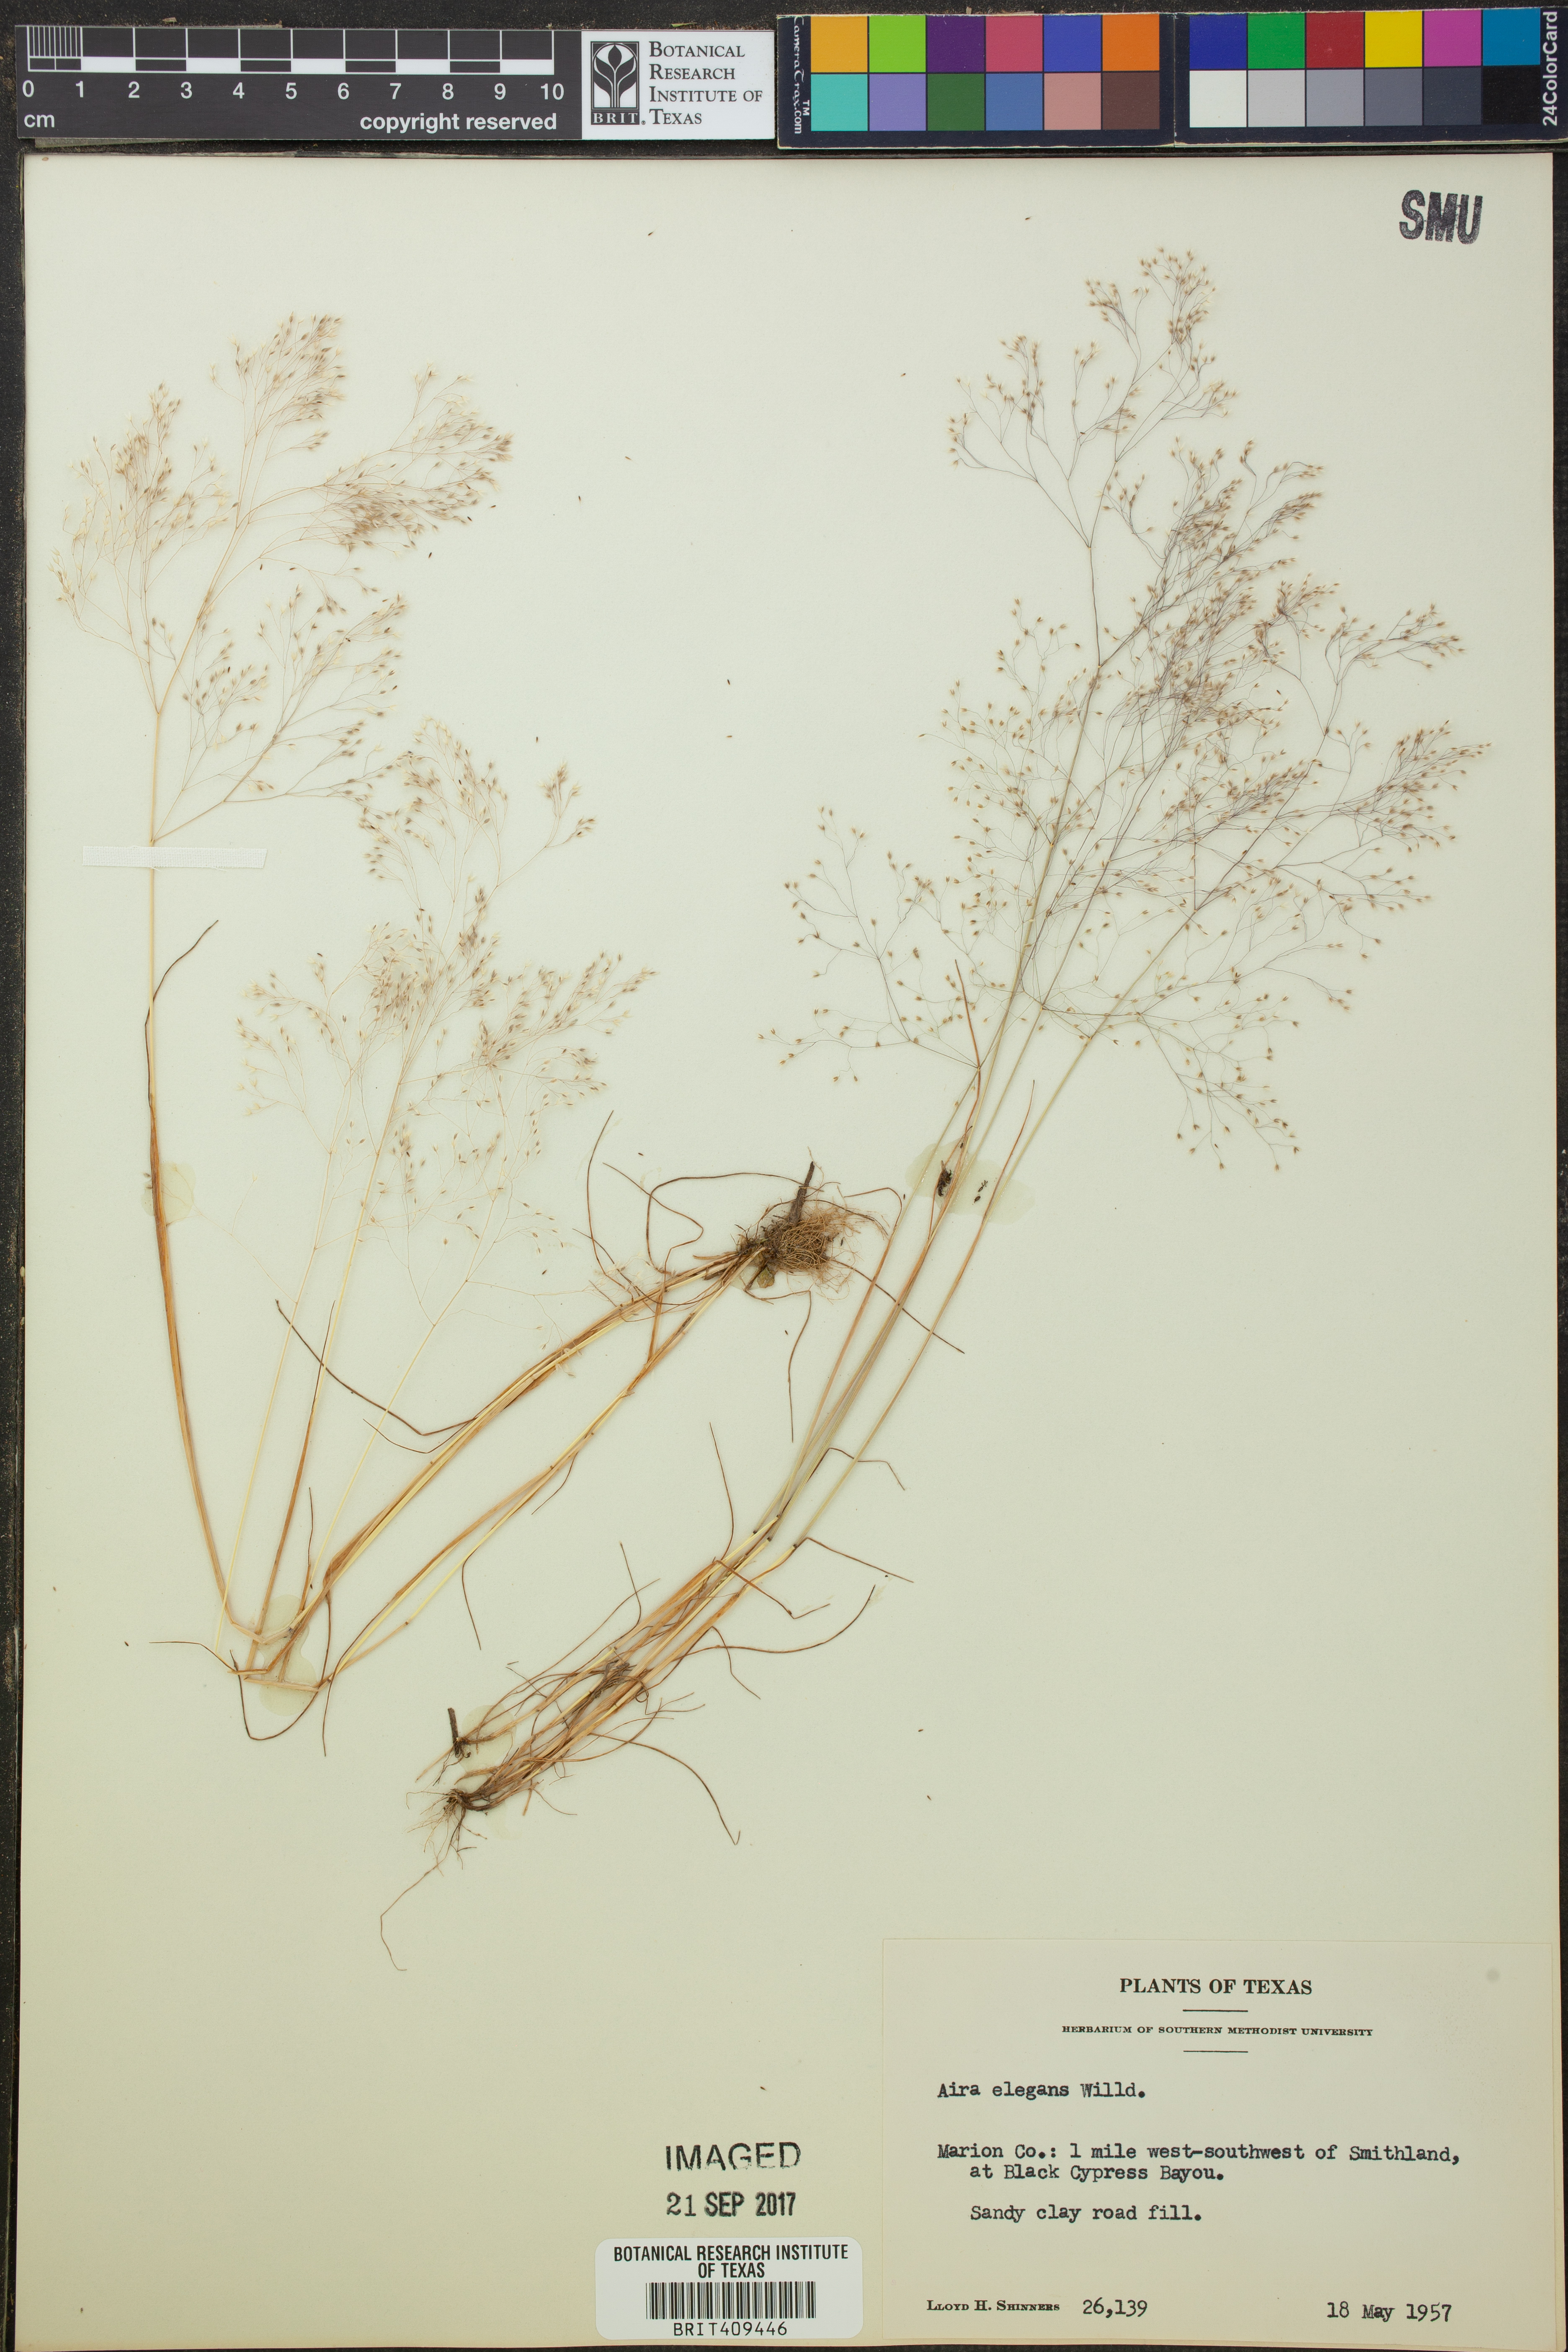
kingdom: Plantae
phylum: Tracheophyta
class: Liliopsida
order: Poales
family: Poaceae
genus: Aira
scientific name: Aira elegans
